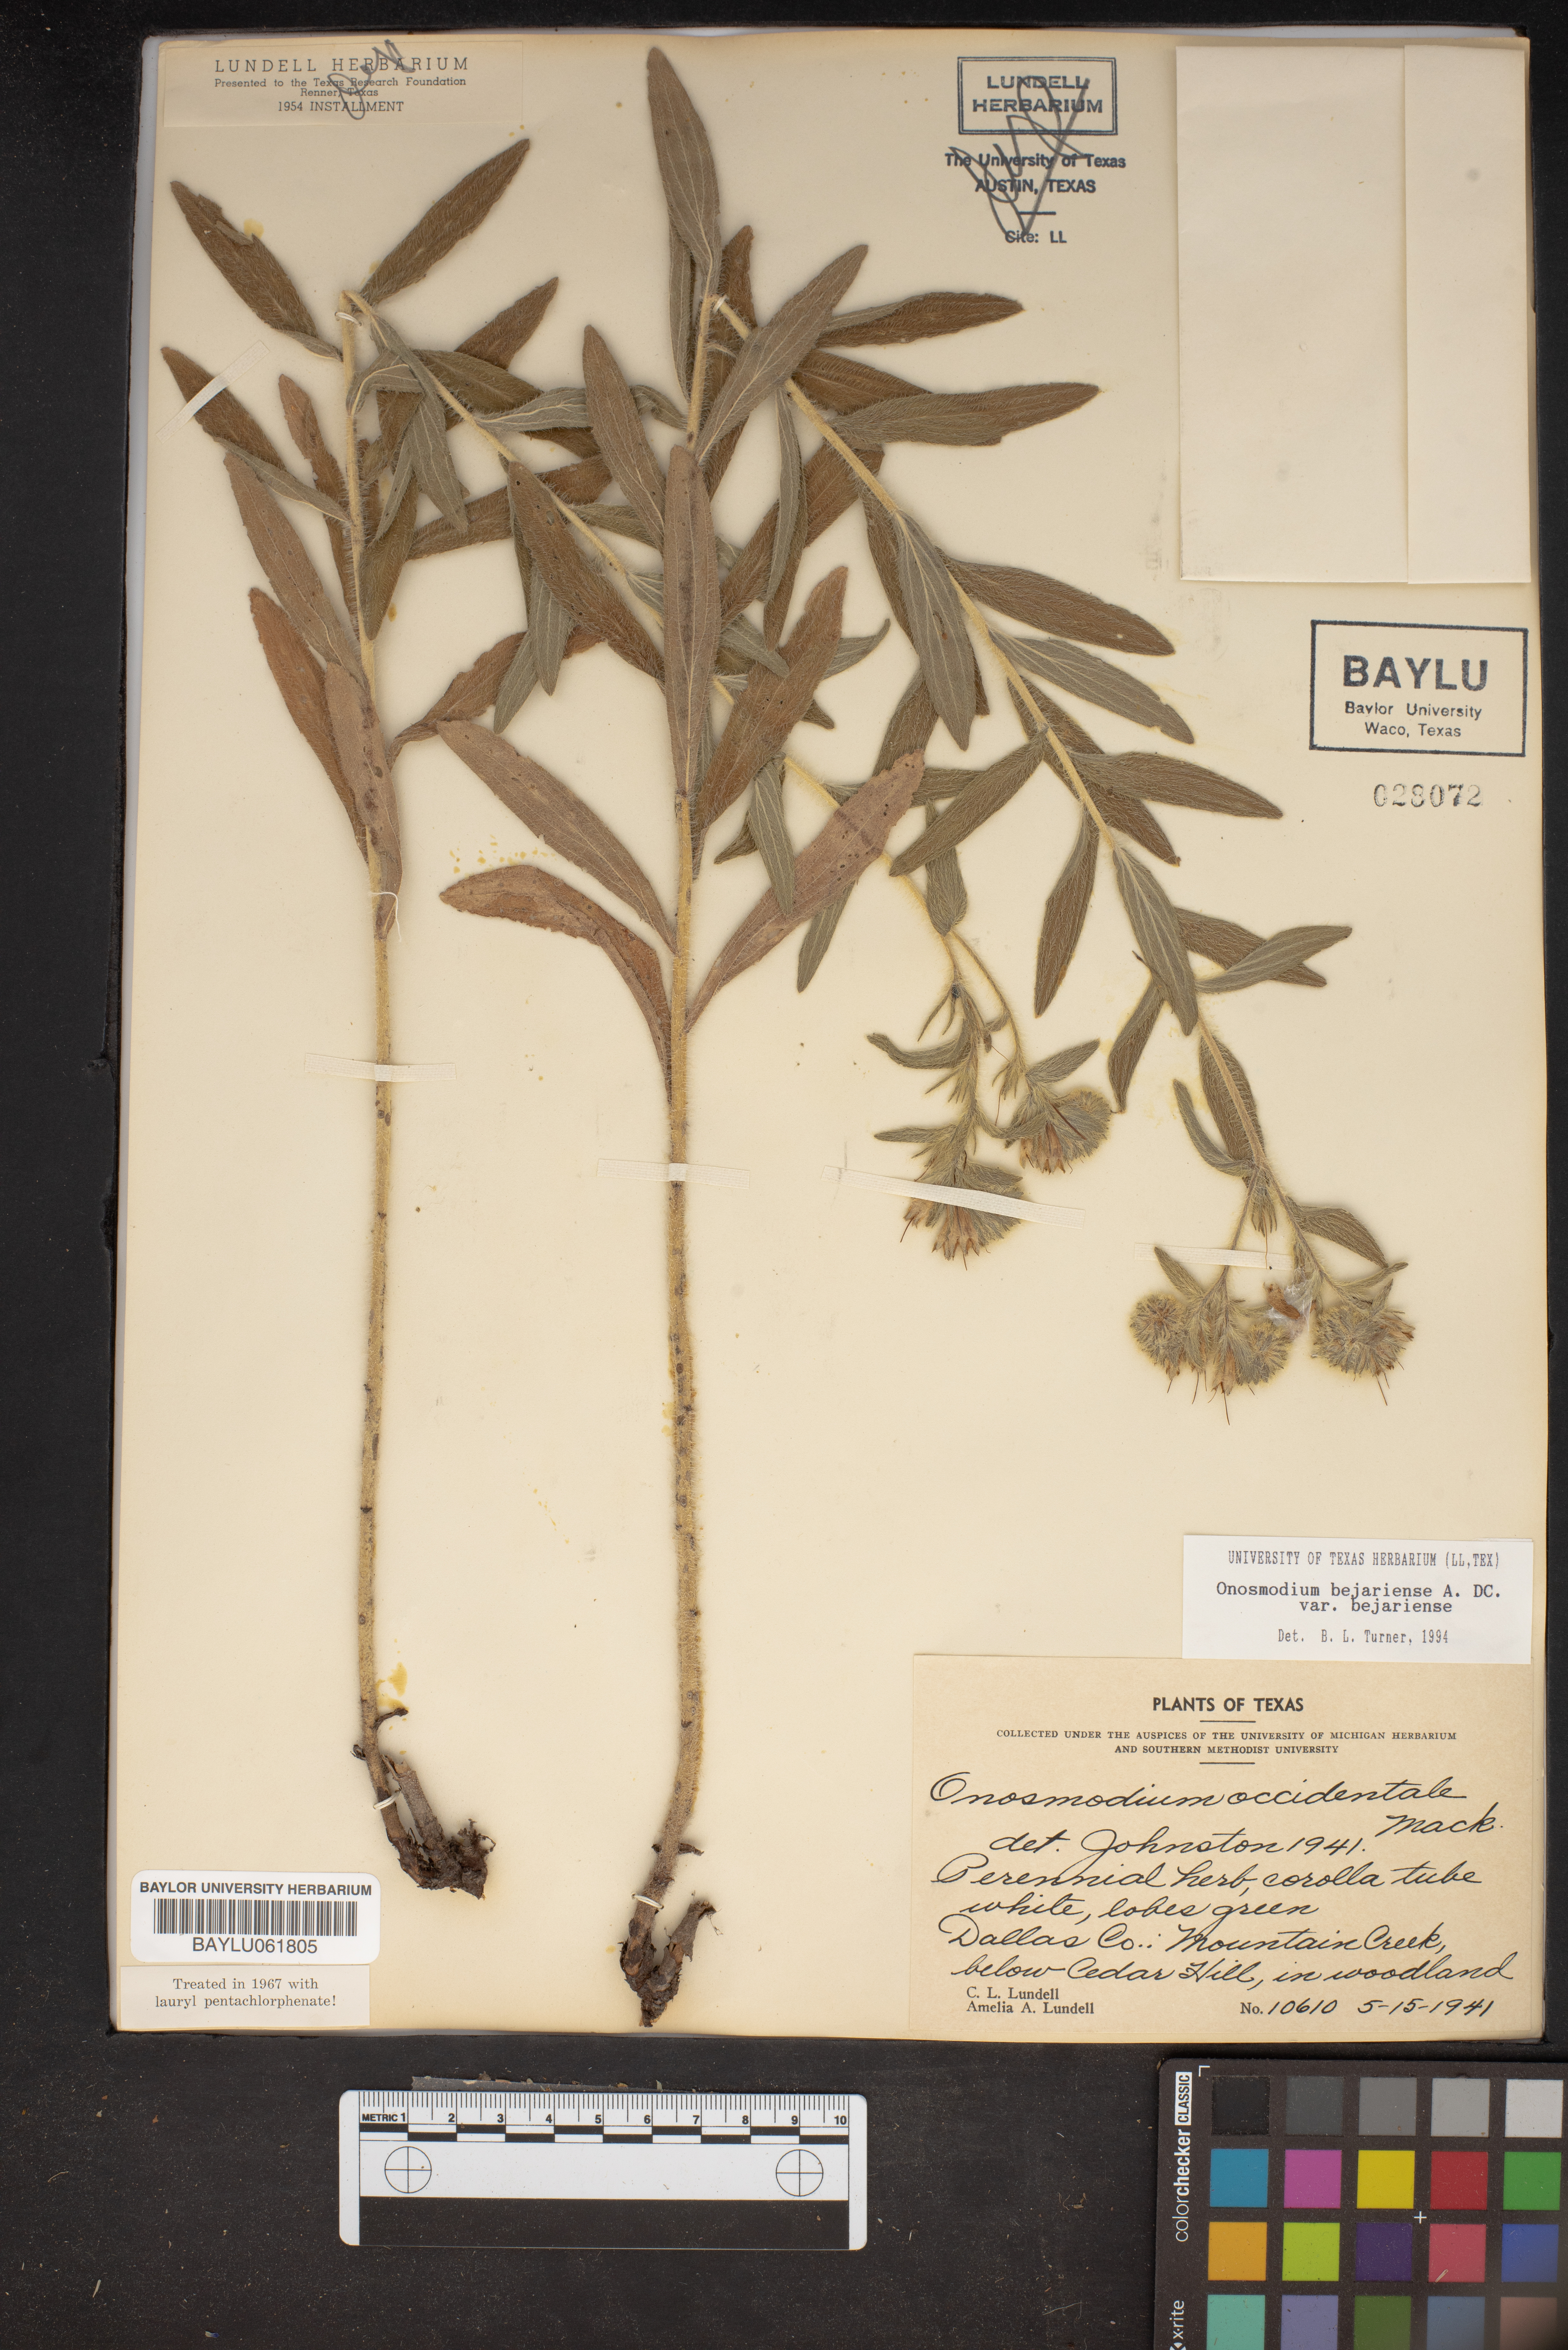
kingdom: Plantae
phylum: Tracheophyta
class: Magnoliopsida
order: Boraginales
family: Boraginaceae
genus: Lithospermum
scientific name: Lithospermum molle
